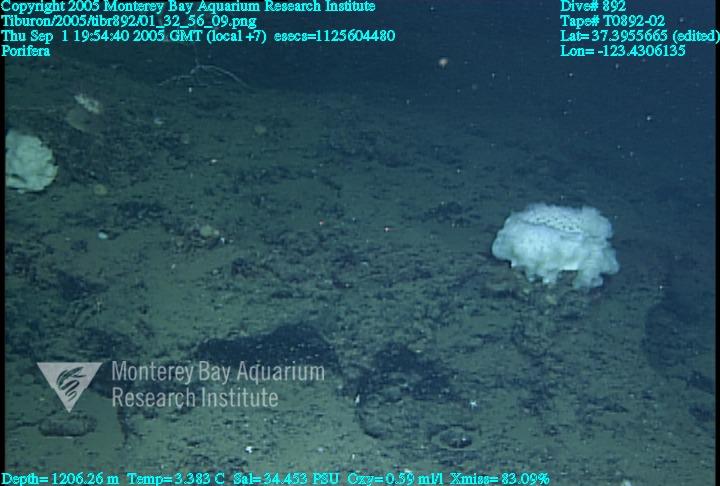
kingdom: Animalia
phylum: Porifera
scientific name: Porifera
